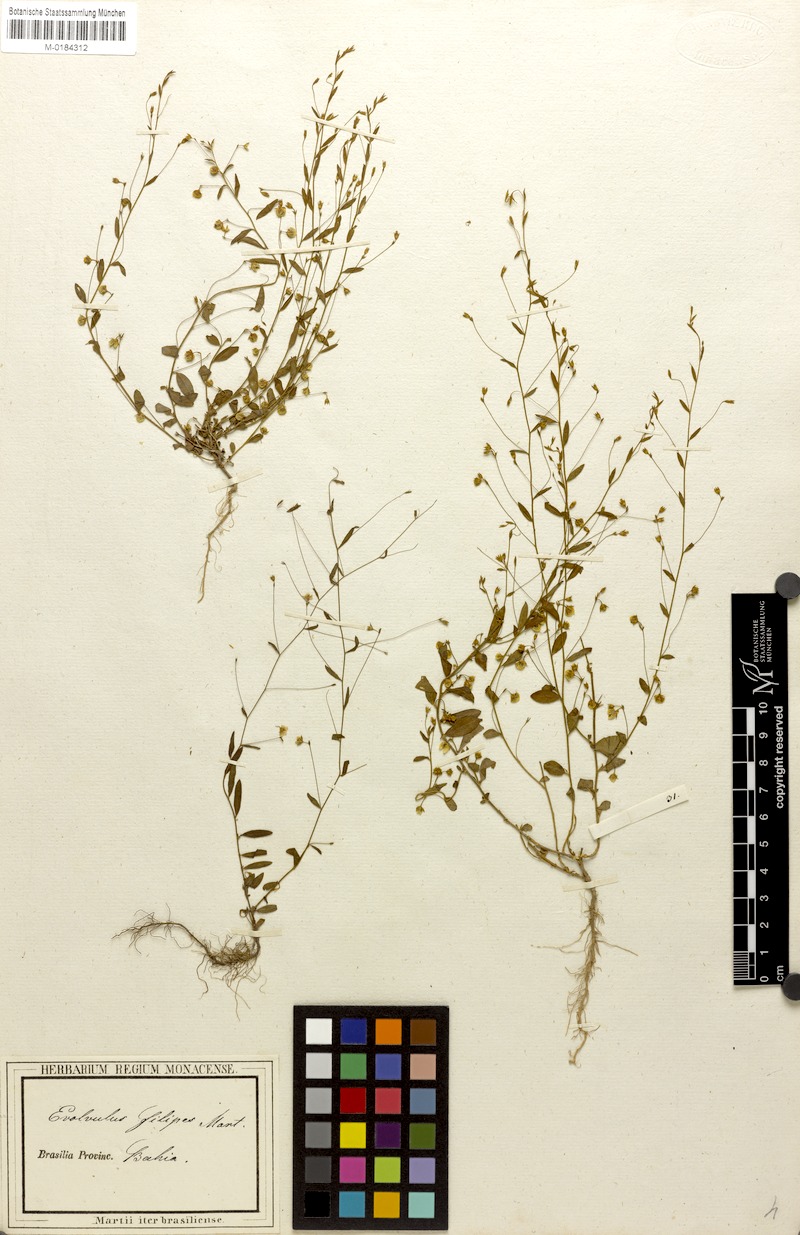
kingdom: Plantae
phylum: Tracheophyta
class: Magnoliopsida
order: Solanales
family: Convolvulaceae
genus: Evolvulus
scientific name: Evolvulus filipes
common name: Maryland dwarf morning-glory
